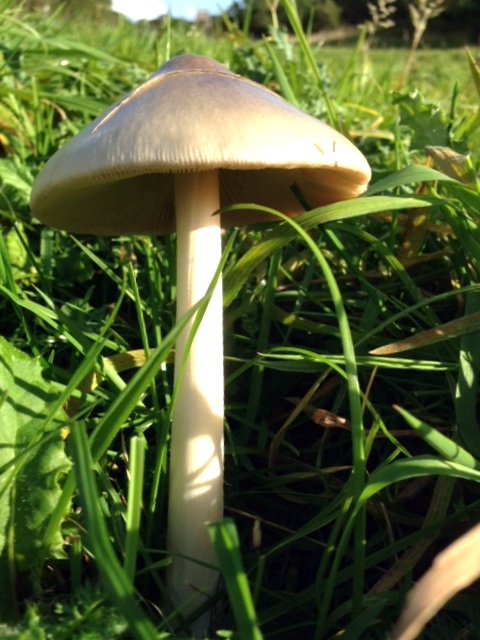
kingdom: Fungi
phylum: Basidiomycota
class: Agaricomycetes
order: Agaricales
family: Pluteaceae
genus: Volvopluteus
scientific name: Volvopluteus gloiocephalus
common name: høj posesvamp
